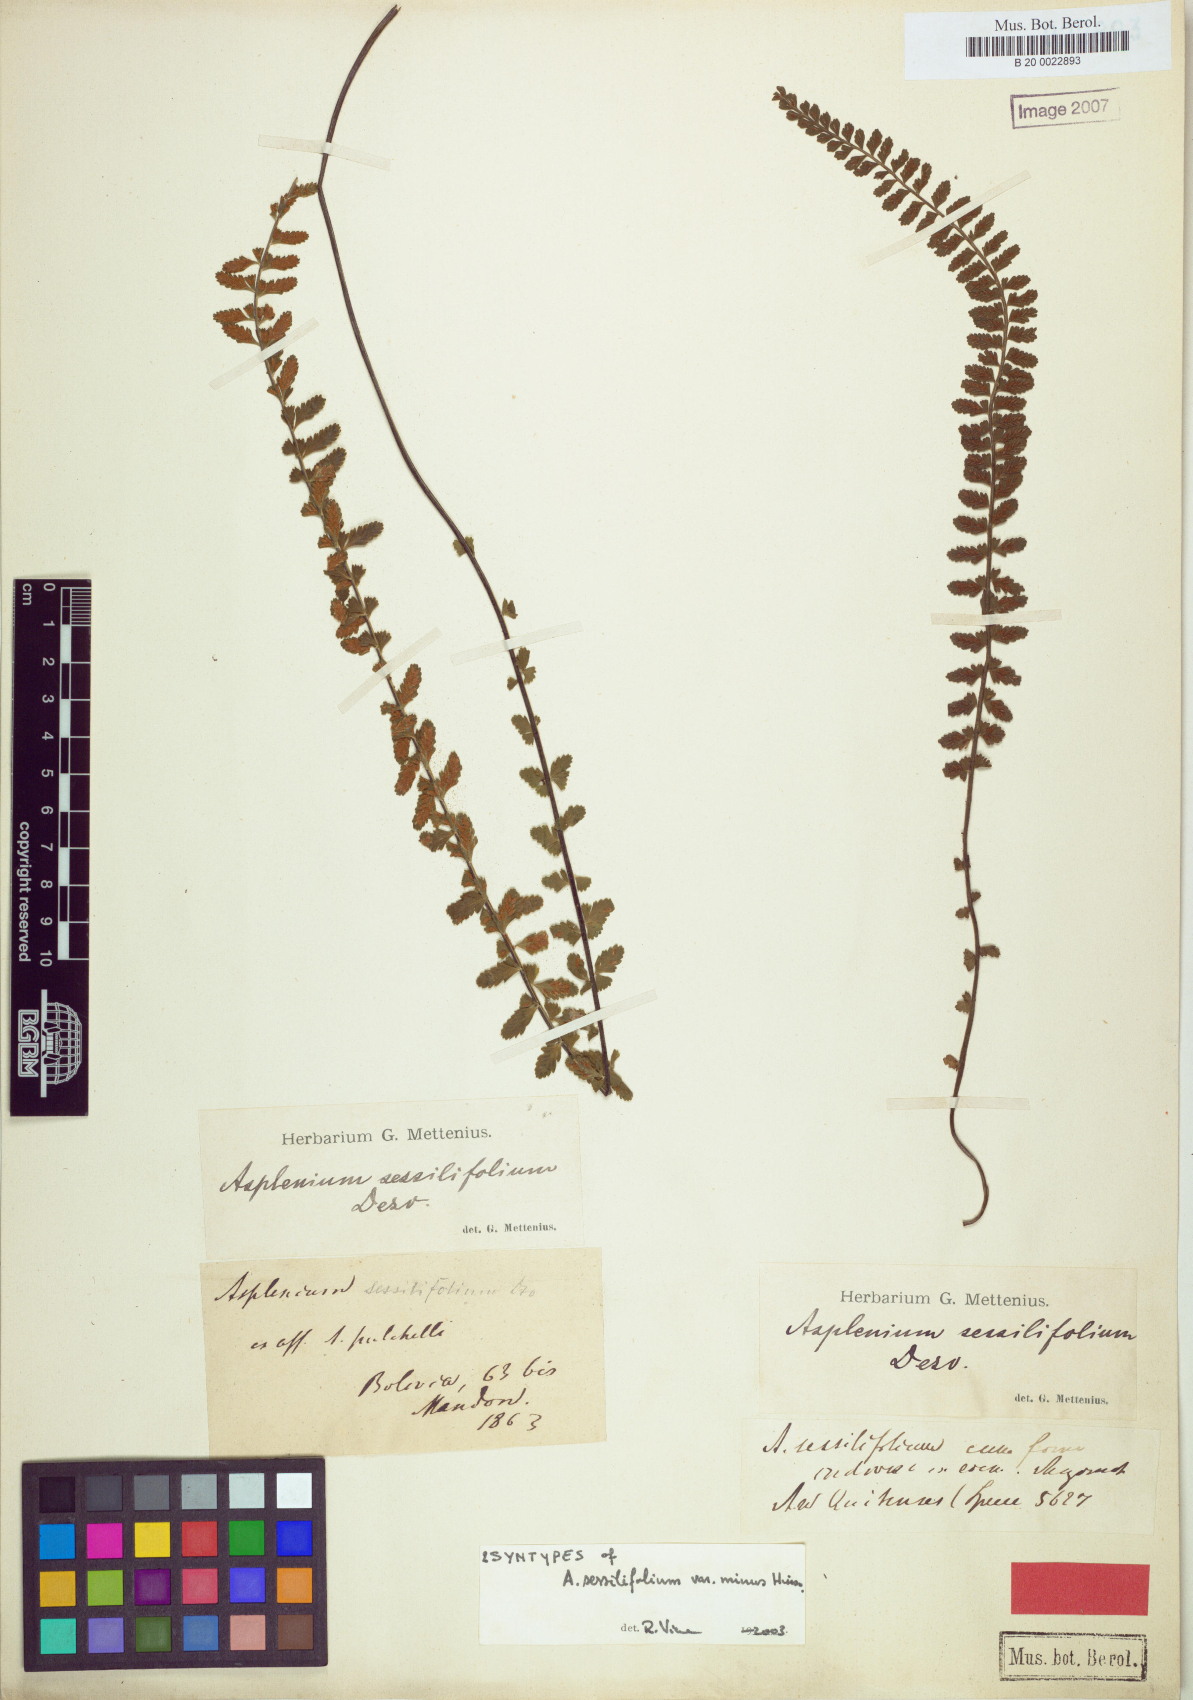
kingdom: Plantae
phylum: Tracheophyta
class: Polypodiopsida
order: Polypodiales
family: Aspleniaceae
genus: Asplenium
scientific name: Asplenium sessilifolium
